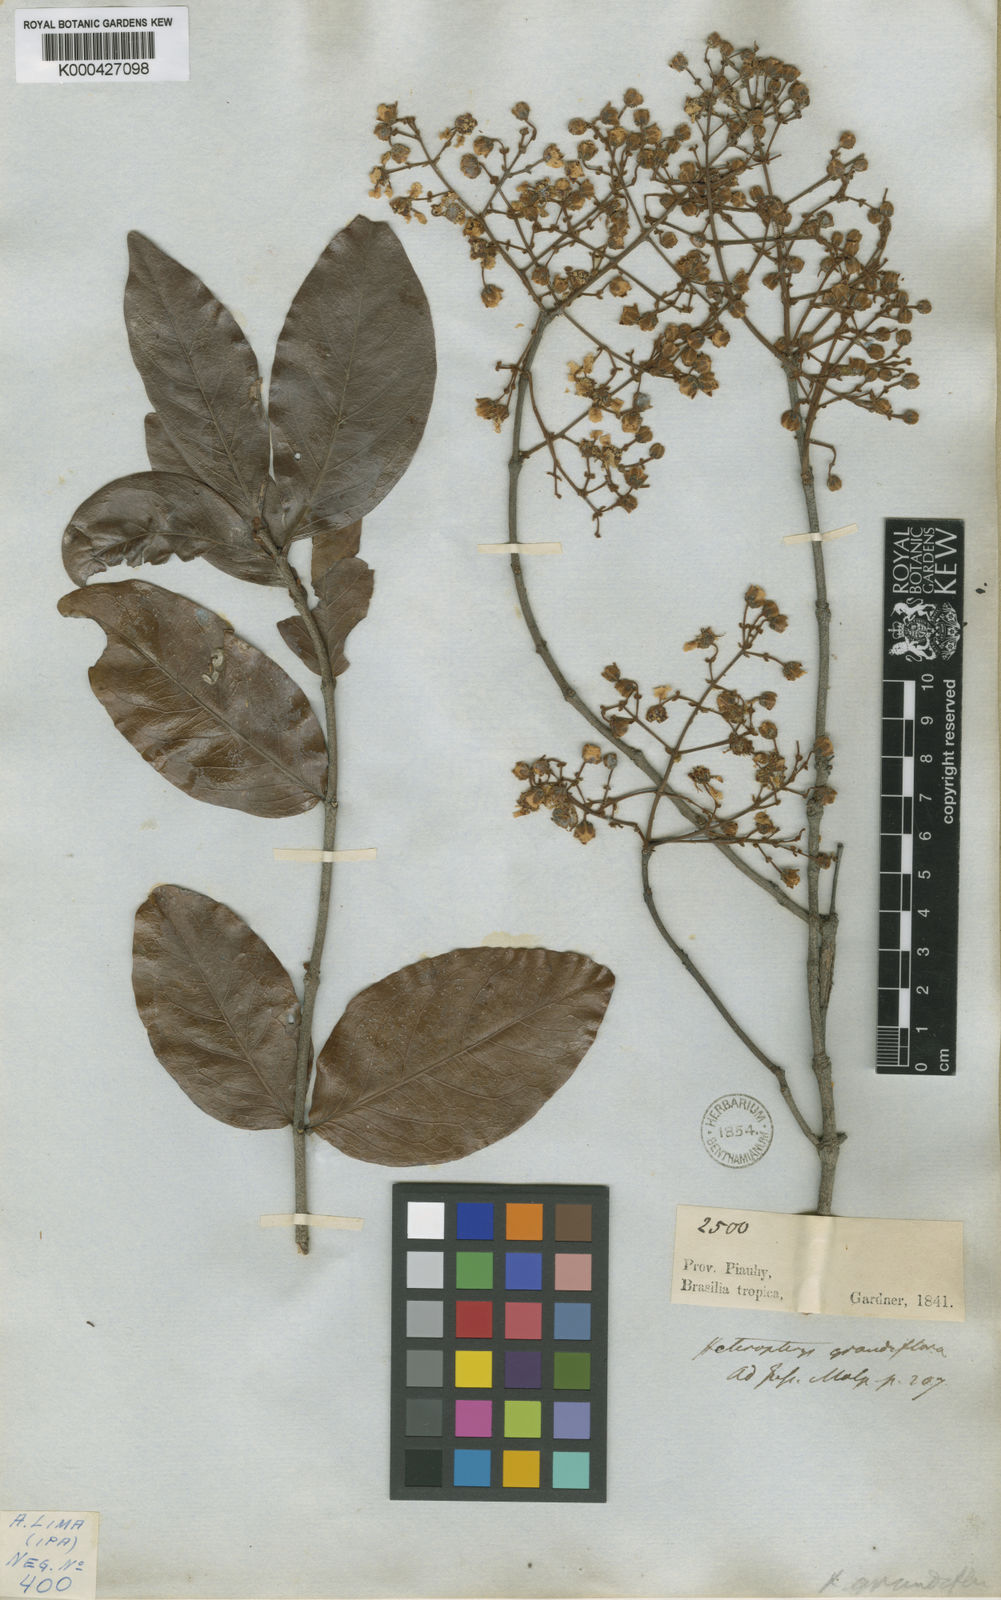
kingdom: Plantae
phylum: Tracheophyta
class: Magnoliopsida
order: Malpighiales
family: Malpighiaceae
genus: Heteropterys
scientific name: Heteropterys grandiflora
